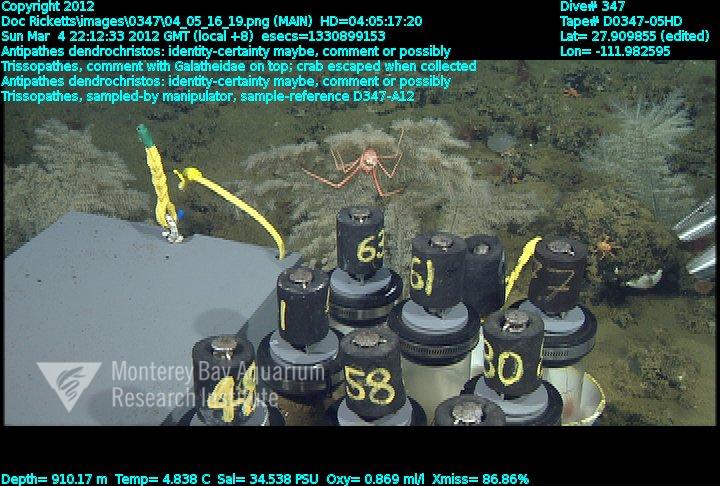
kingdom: Animalia
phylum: Cnidaria
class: Anthozoa
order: Antipatharia
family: Cladopathidae
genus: Trissopathes
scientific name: Trissopathes
